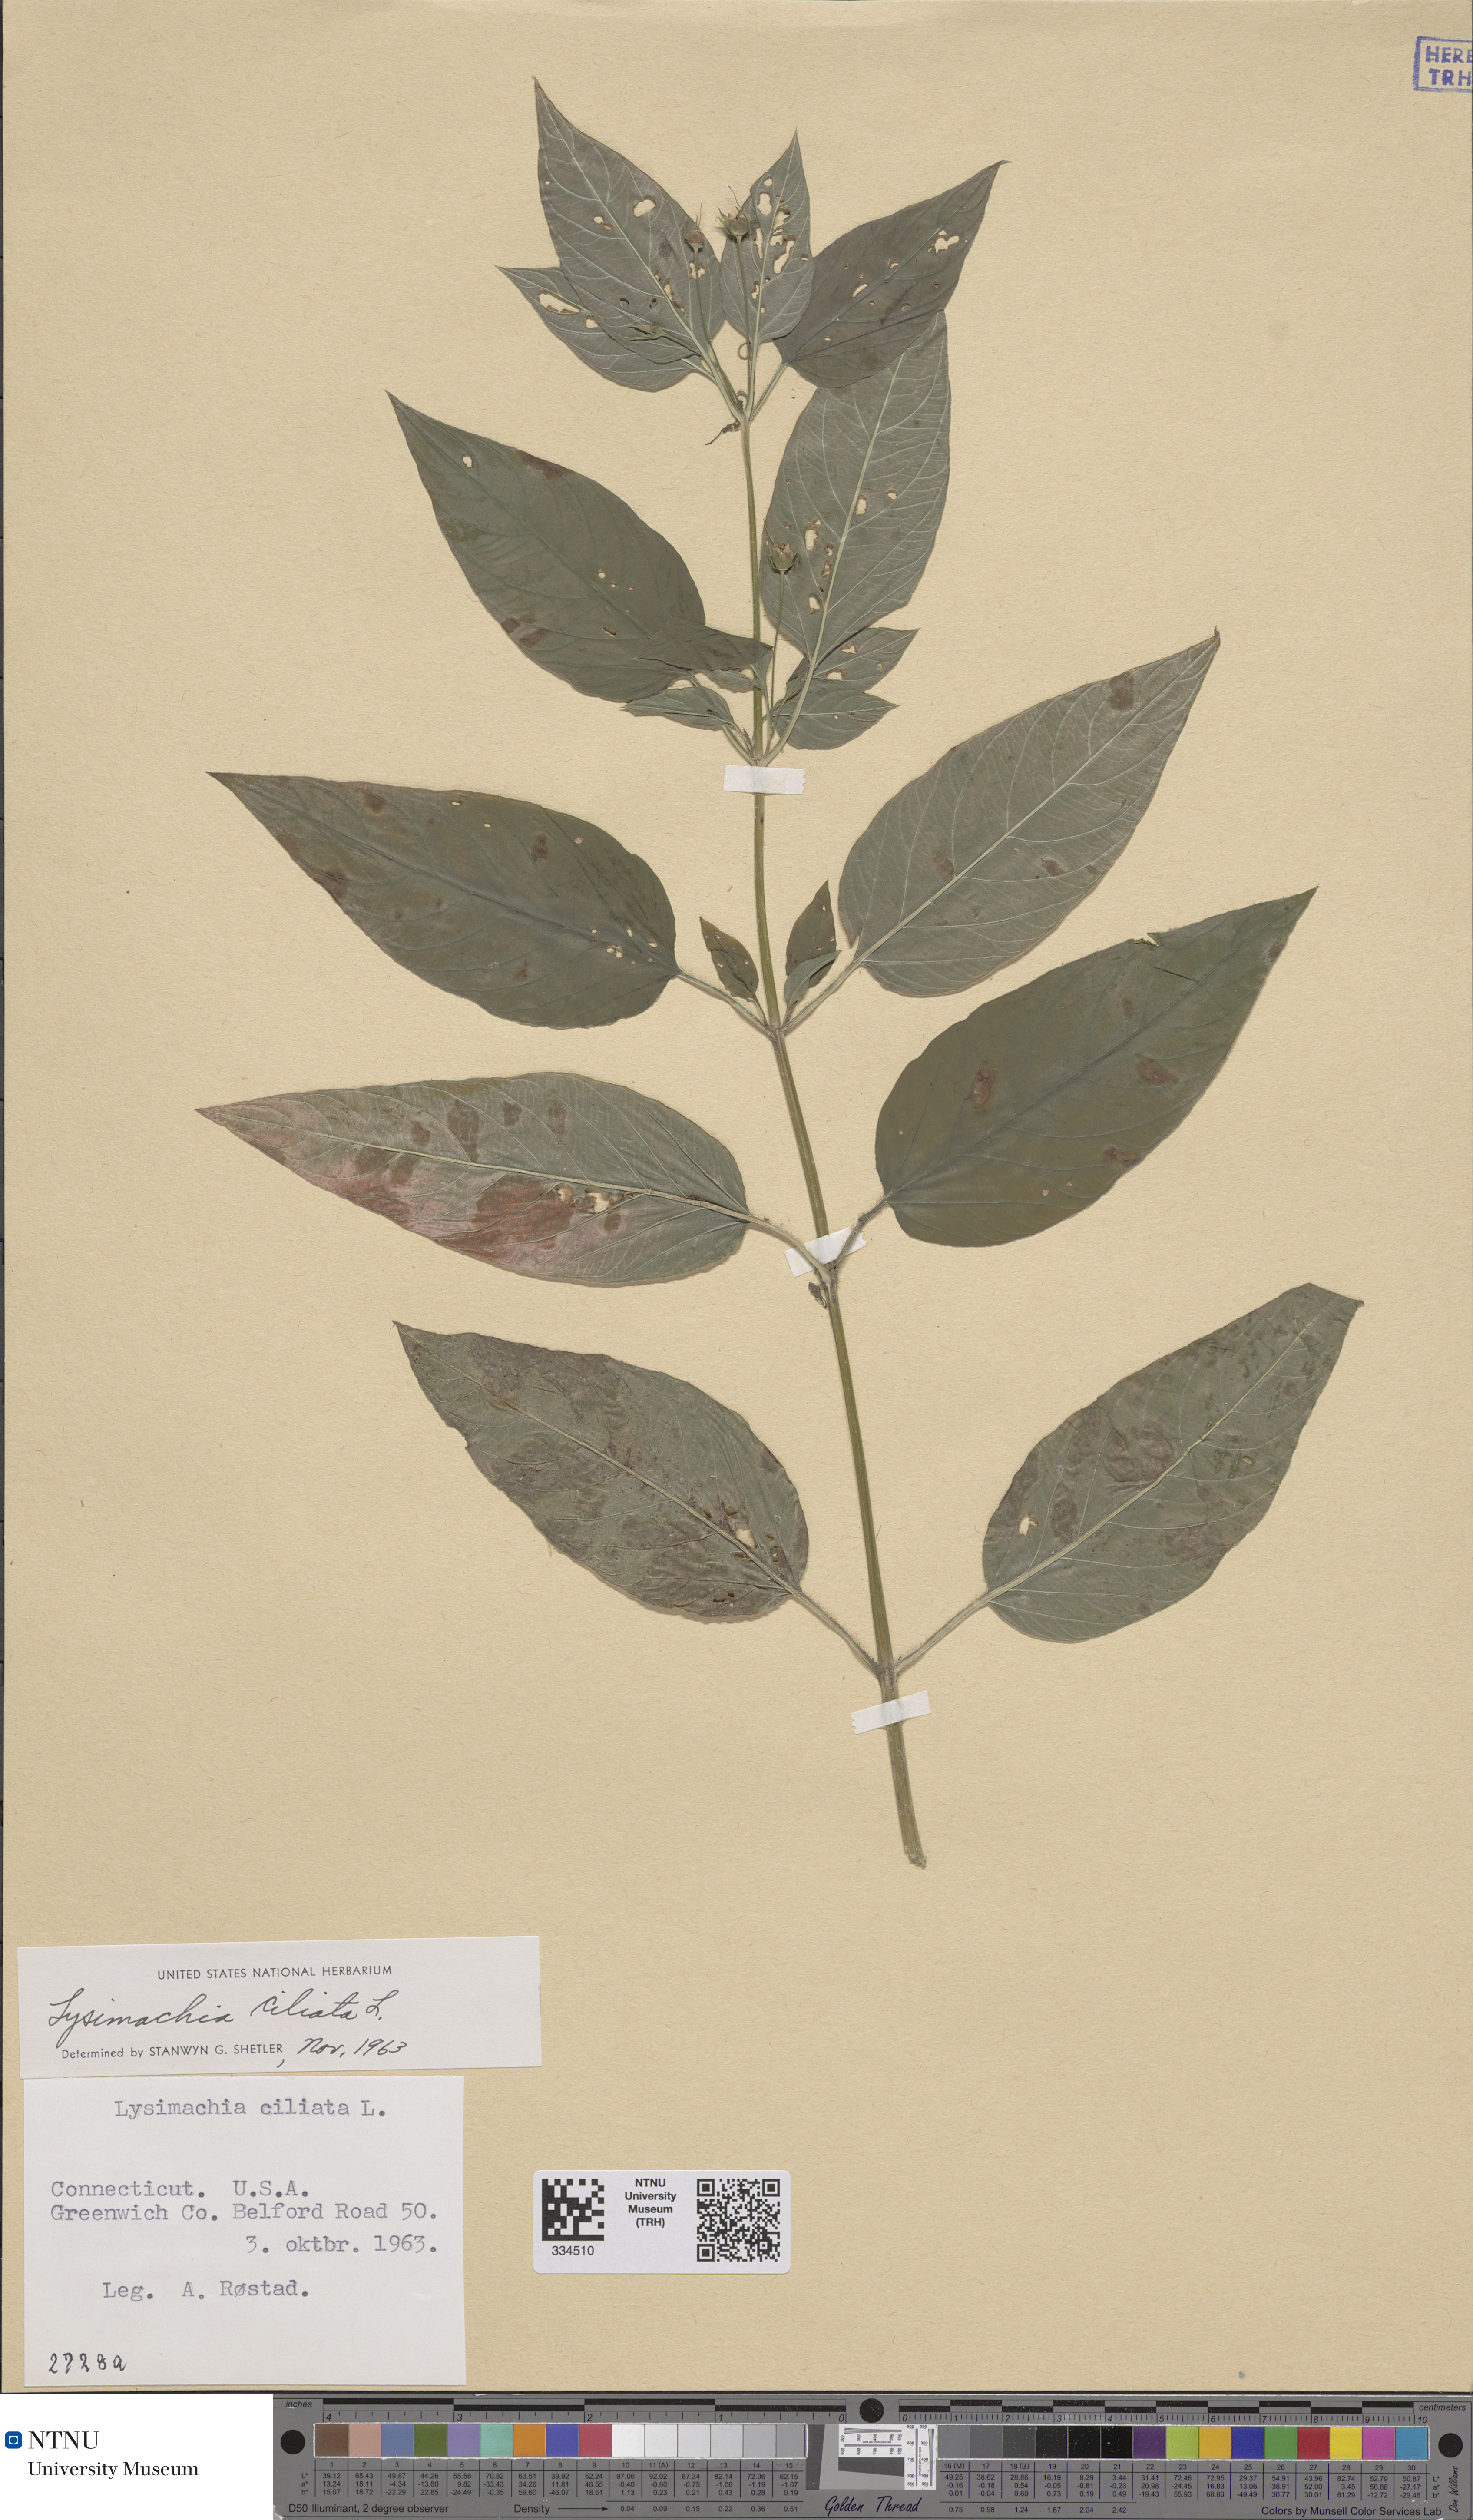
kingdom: Plantae
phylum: Tracheophyta
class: Magnoliopsida
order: Ericales
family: Primulaceae
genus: Lysimachia
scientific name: Lysimachia ciliata
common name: Fringed loosestrife
